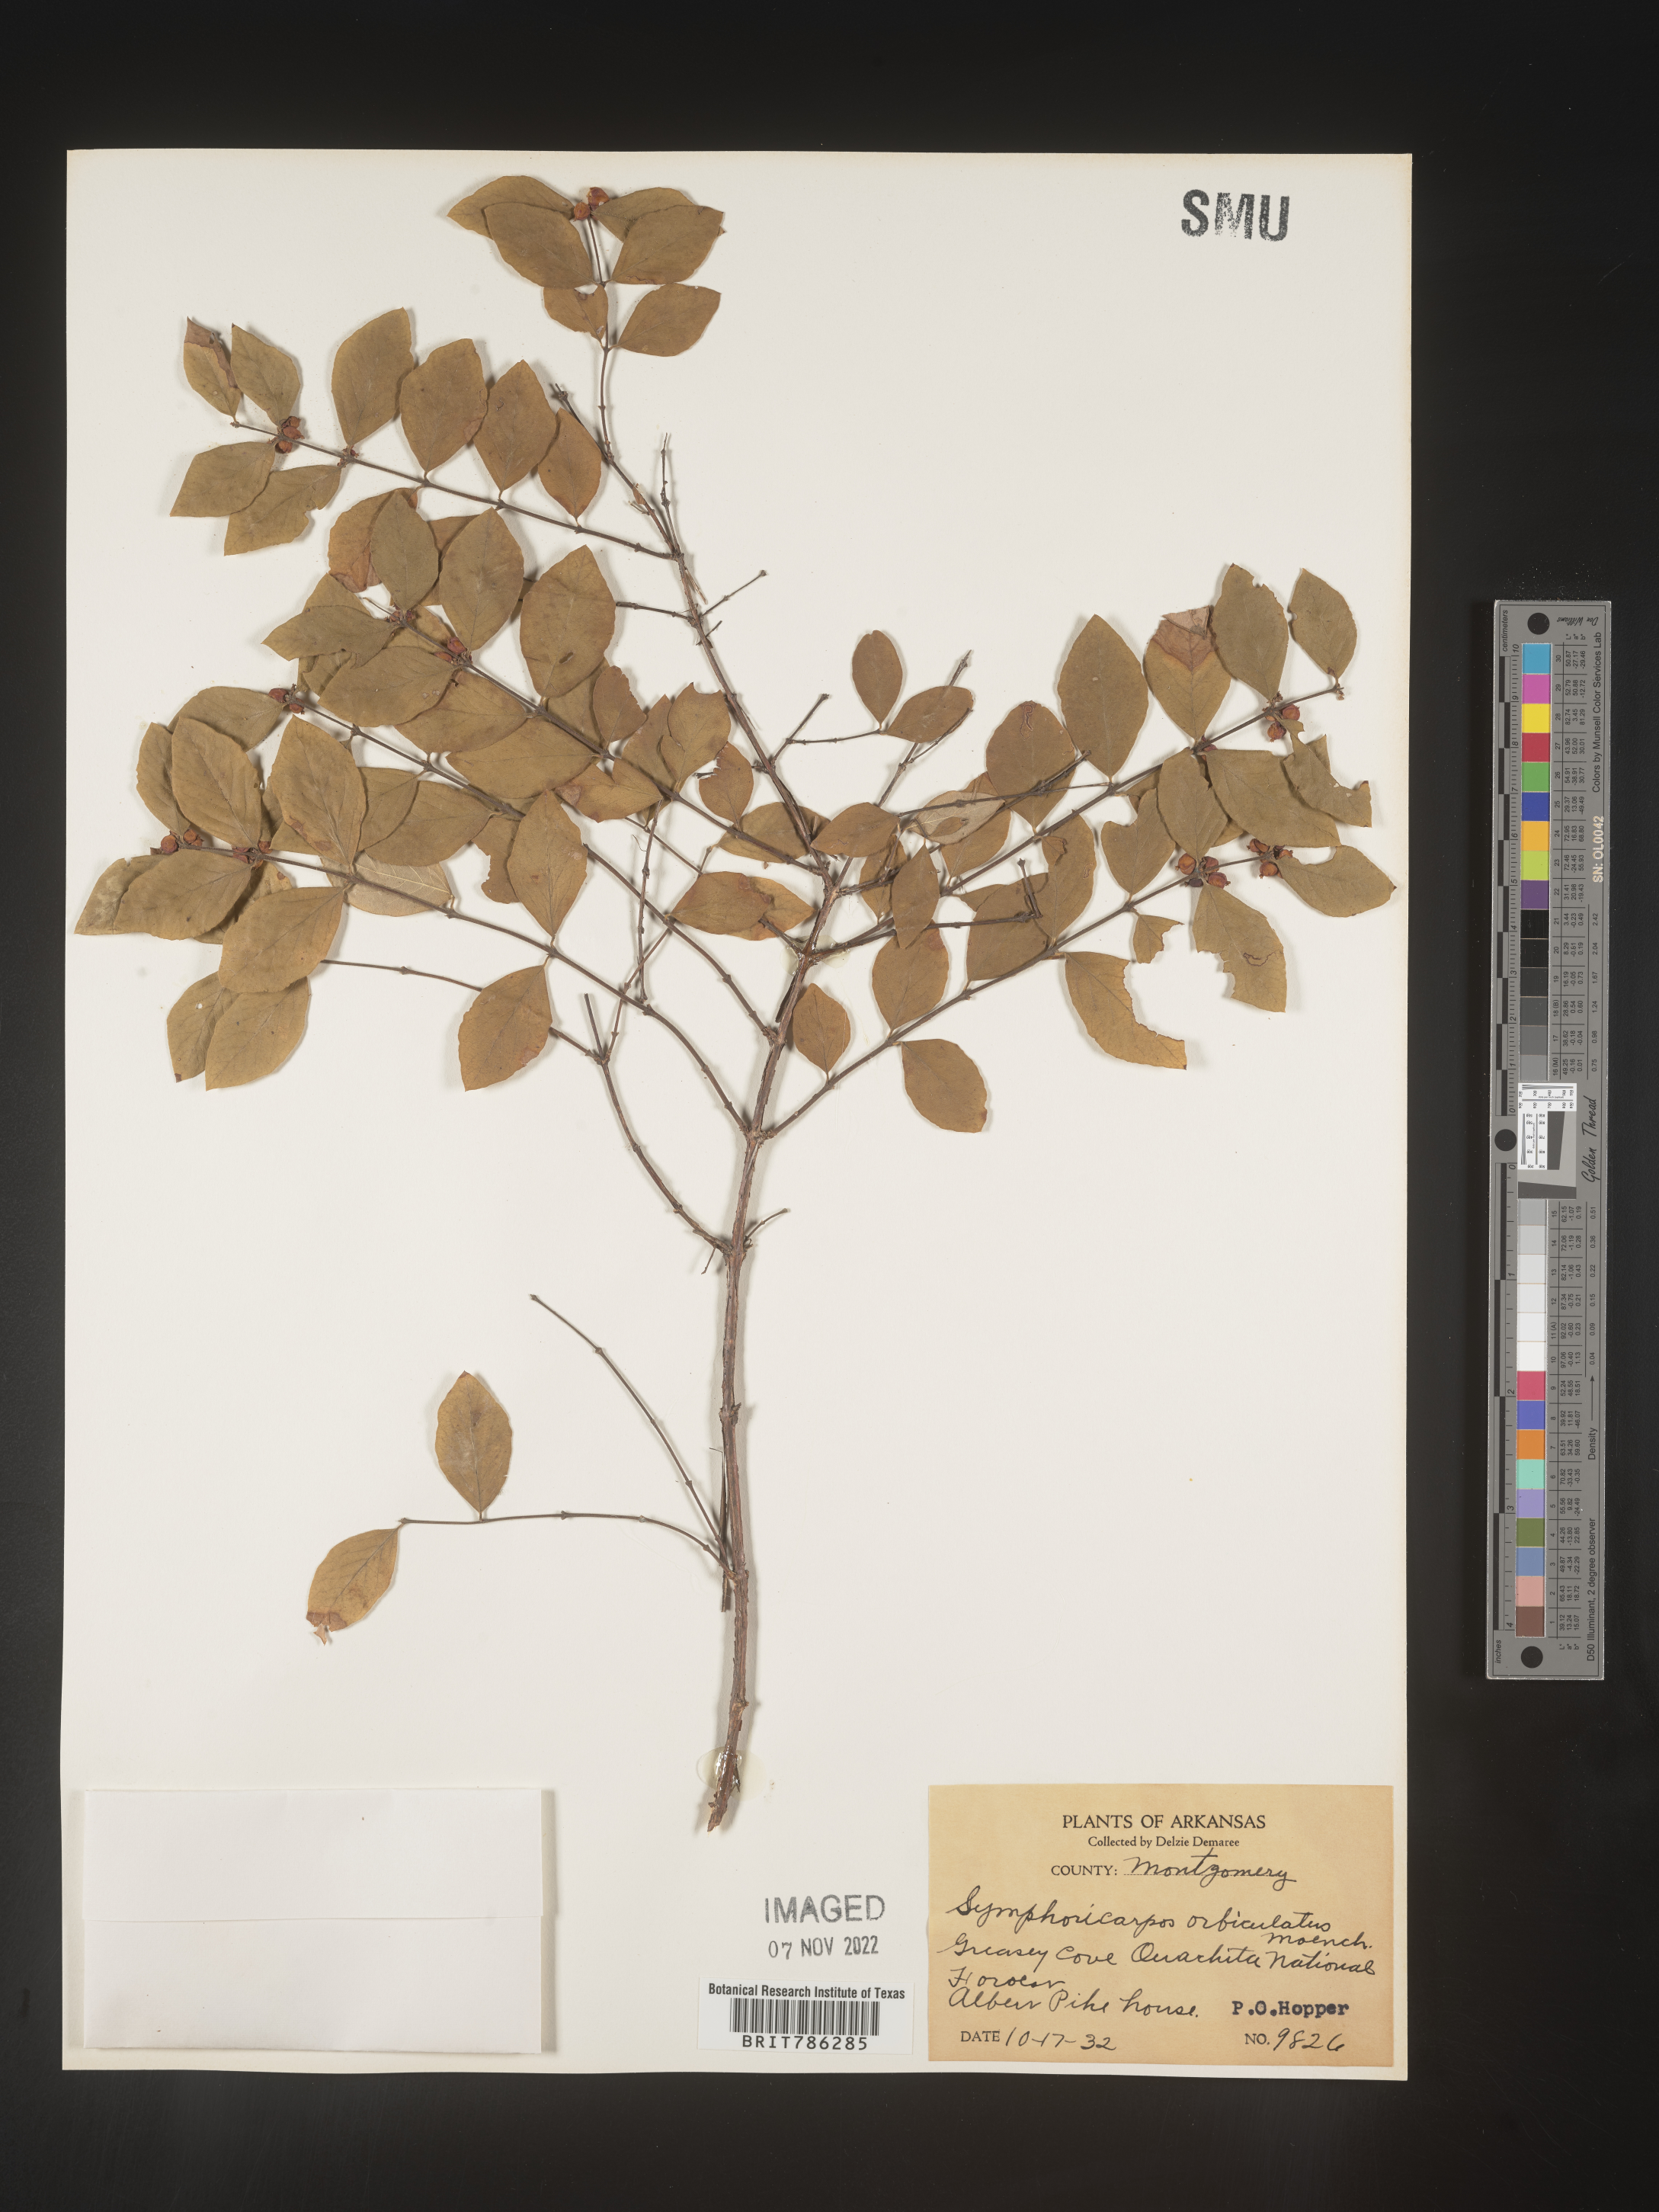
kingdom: Plantae
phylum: Tracheophyta
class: Magnoliopsida
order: Dipsacales
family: Caprifoliaceae
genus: Symphoricarpos
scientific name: Symphoricarpos orbiculatus
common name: Coralberry
